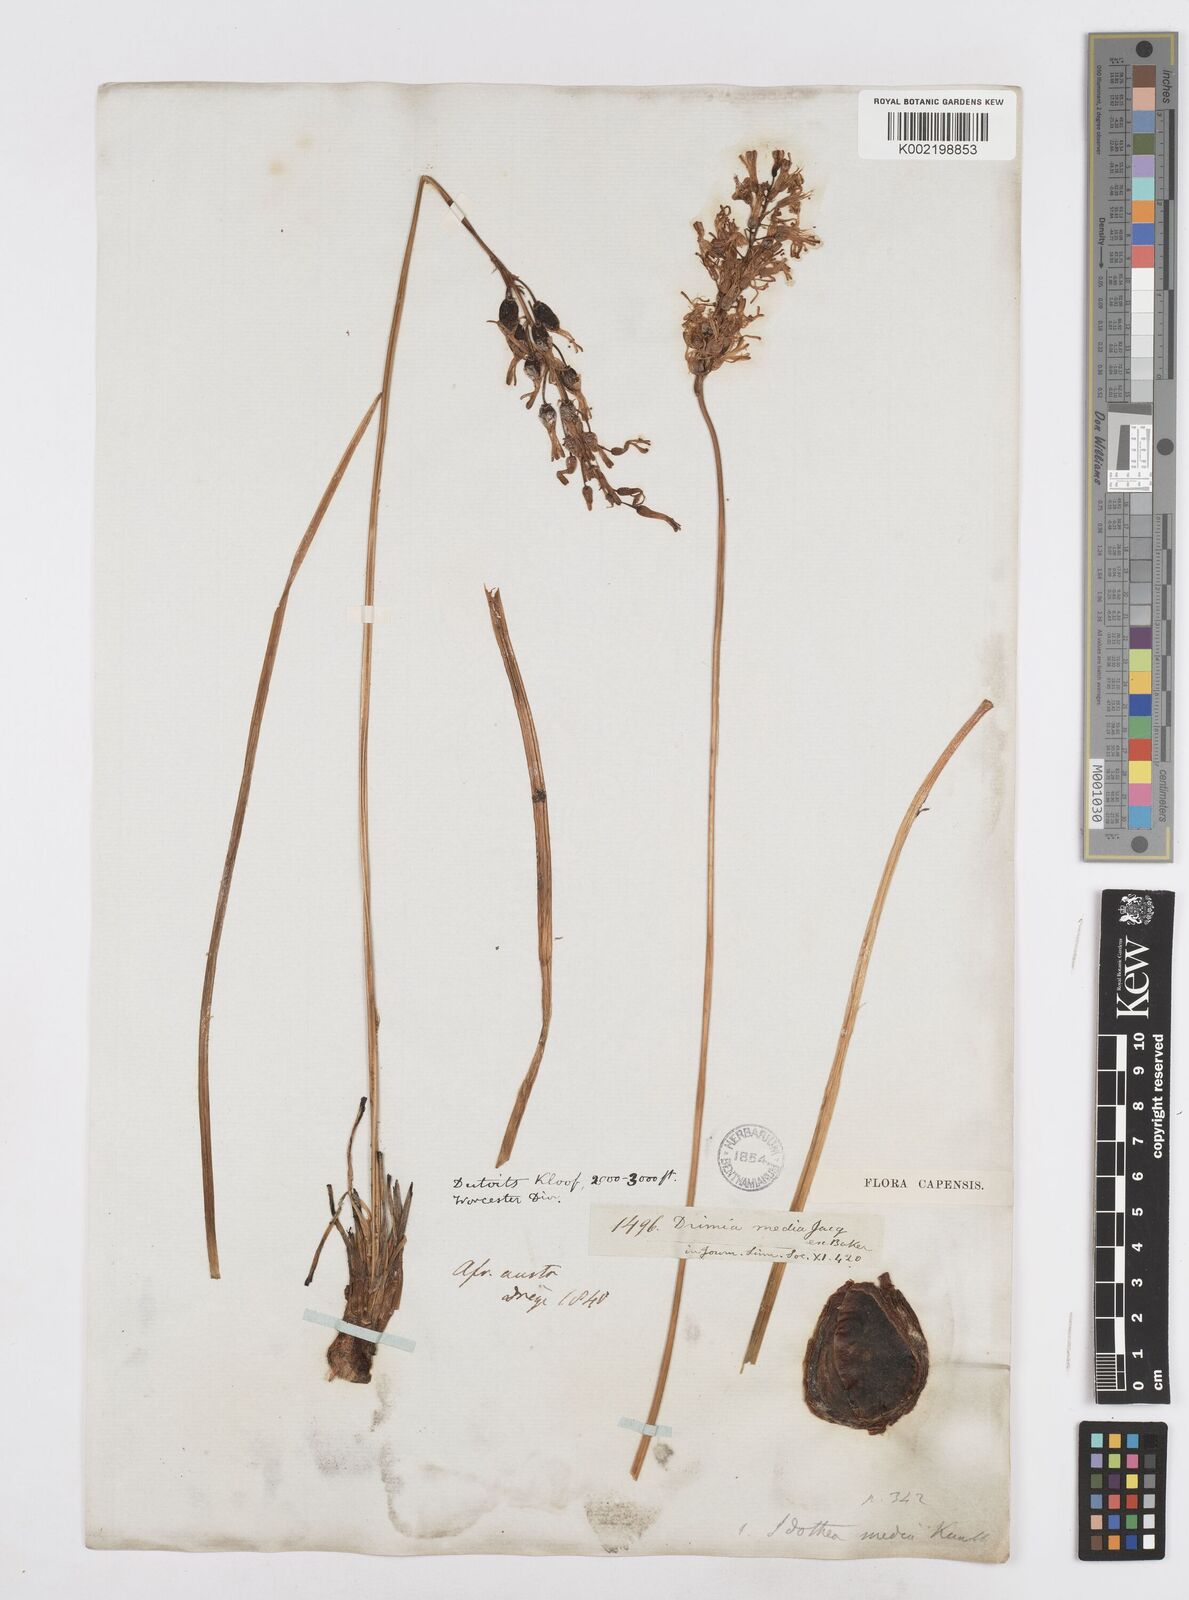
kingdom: Plantae
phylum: Tracheophyta
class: Liliopsida
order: Asparagales
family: Asparagaceae
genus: Drimia
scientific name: Drimia media
